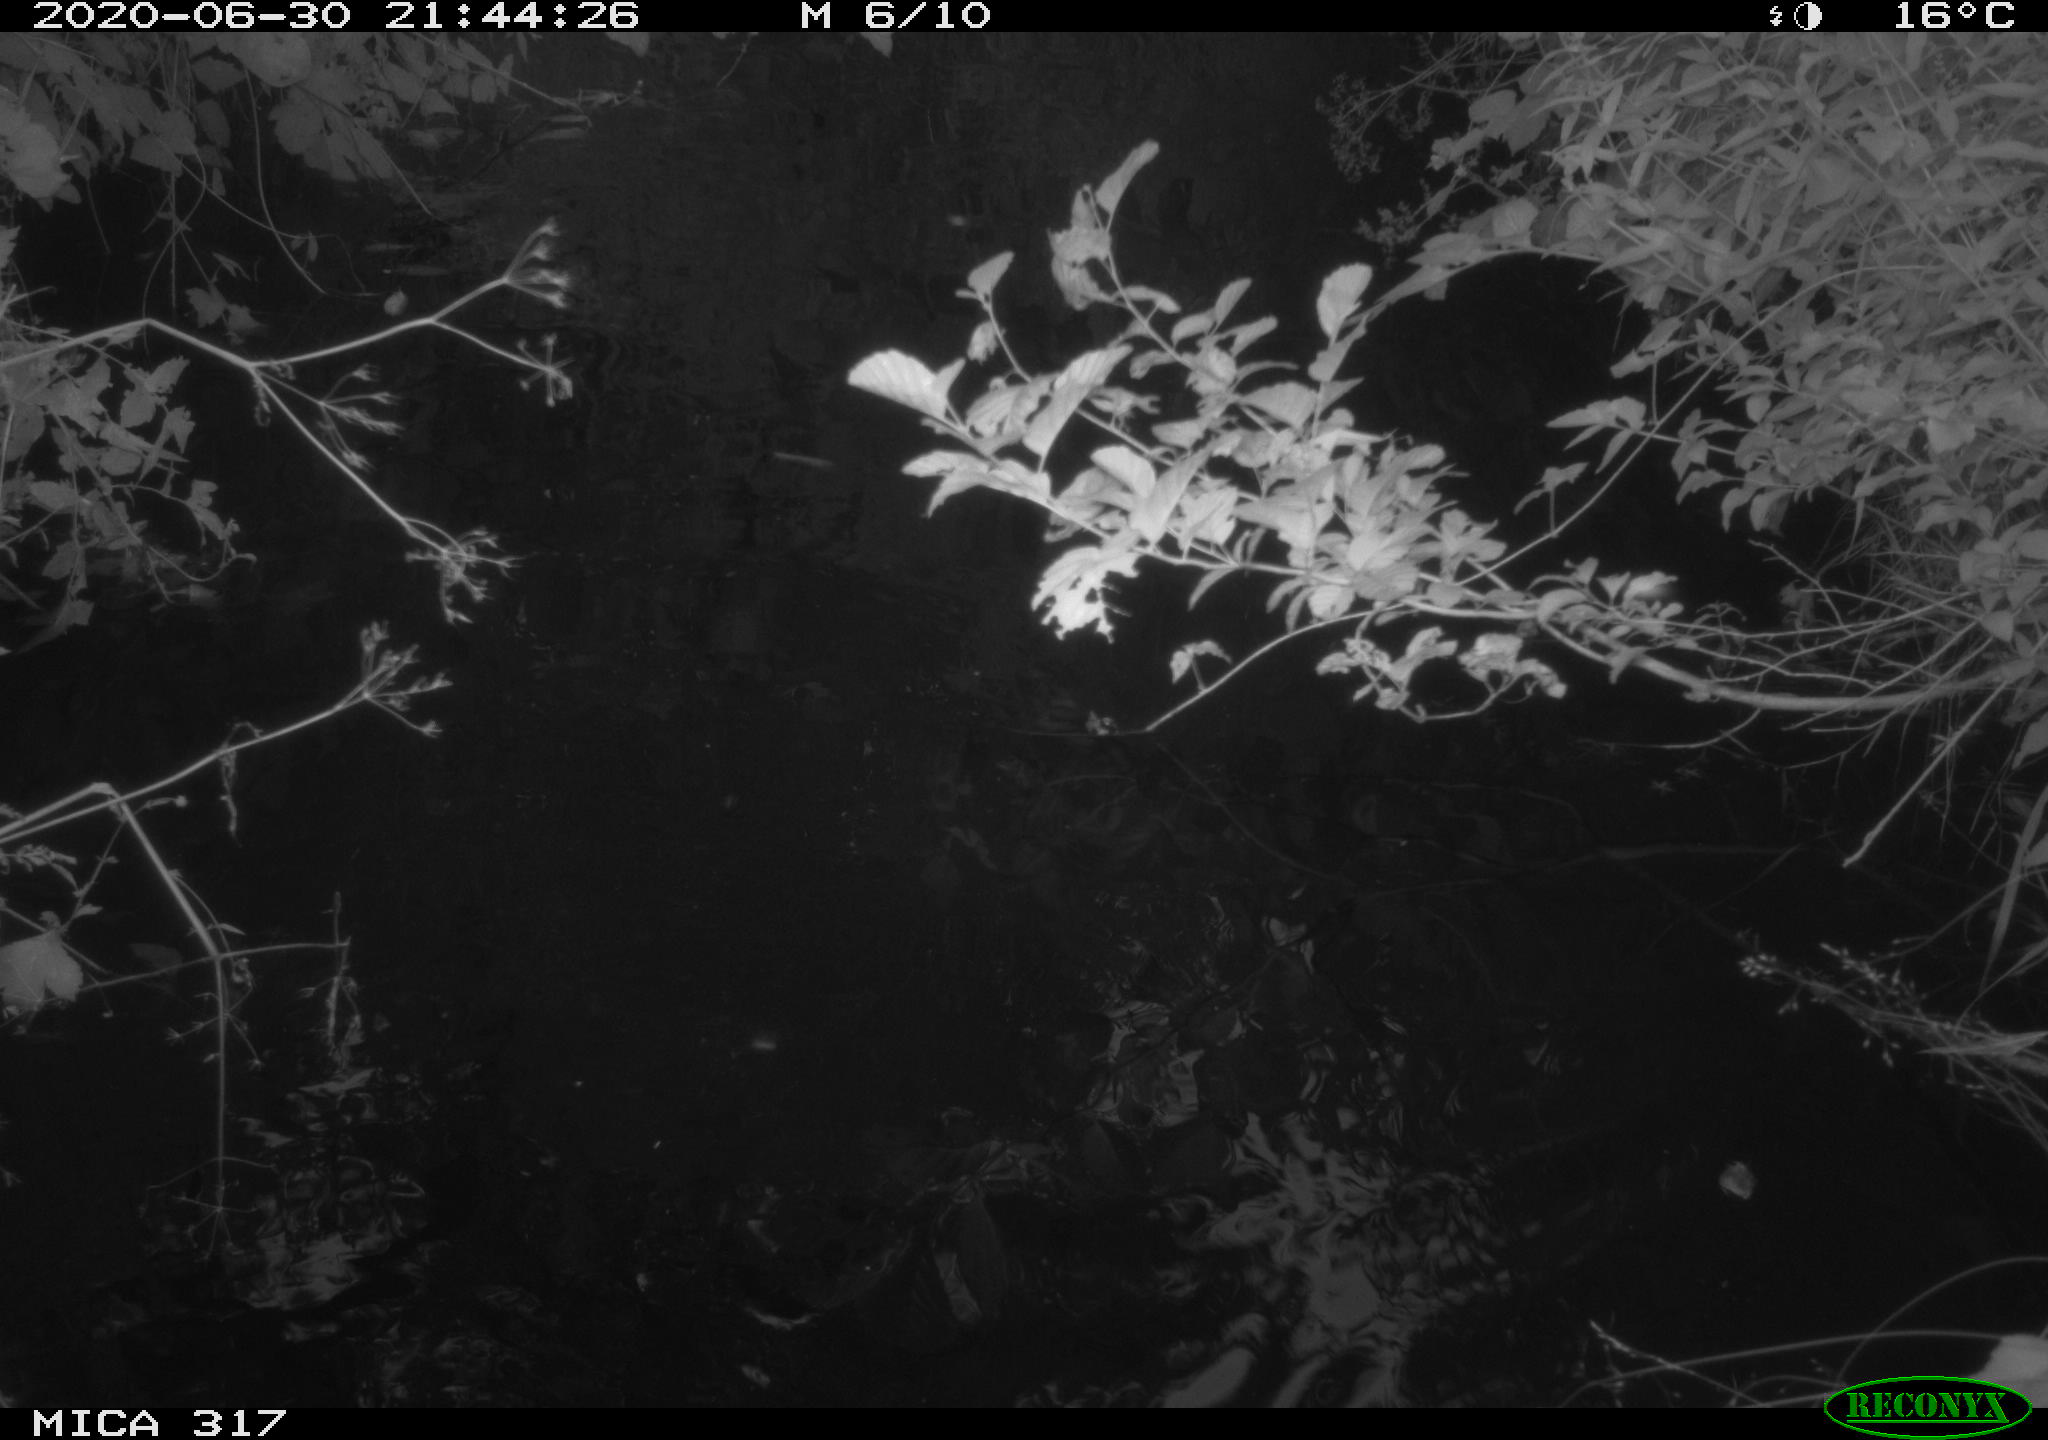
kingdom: Animalia
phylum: Chordata
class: Aves
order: Anseriformes
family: Anatidae
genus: Anas
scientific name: Anas platyrhynchos
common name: Mallard
